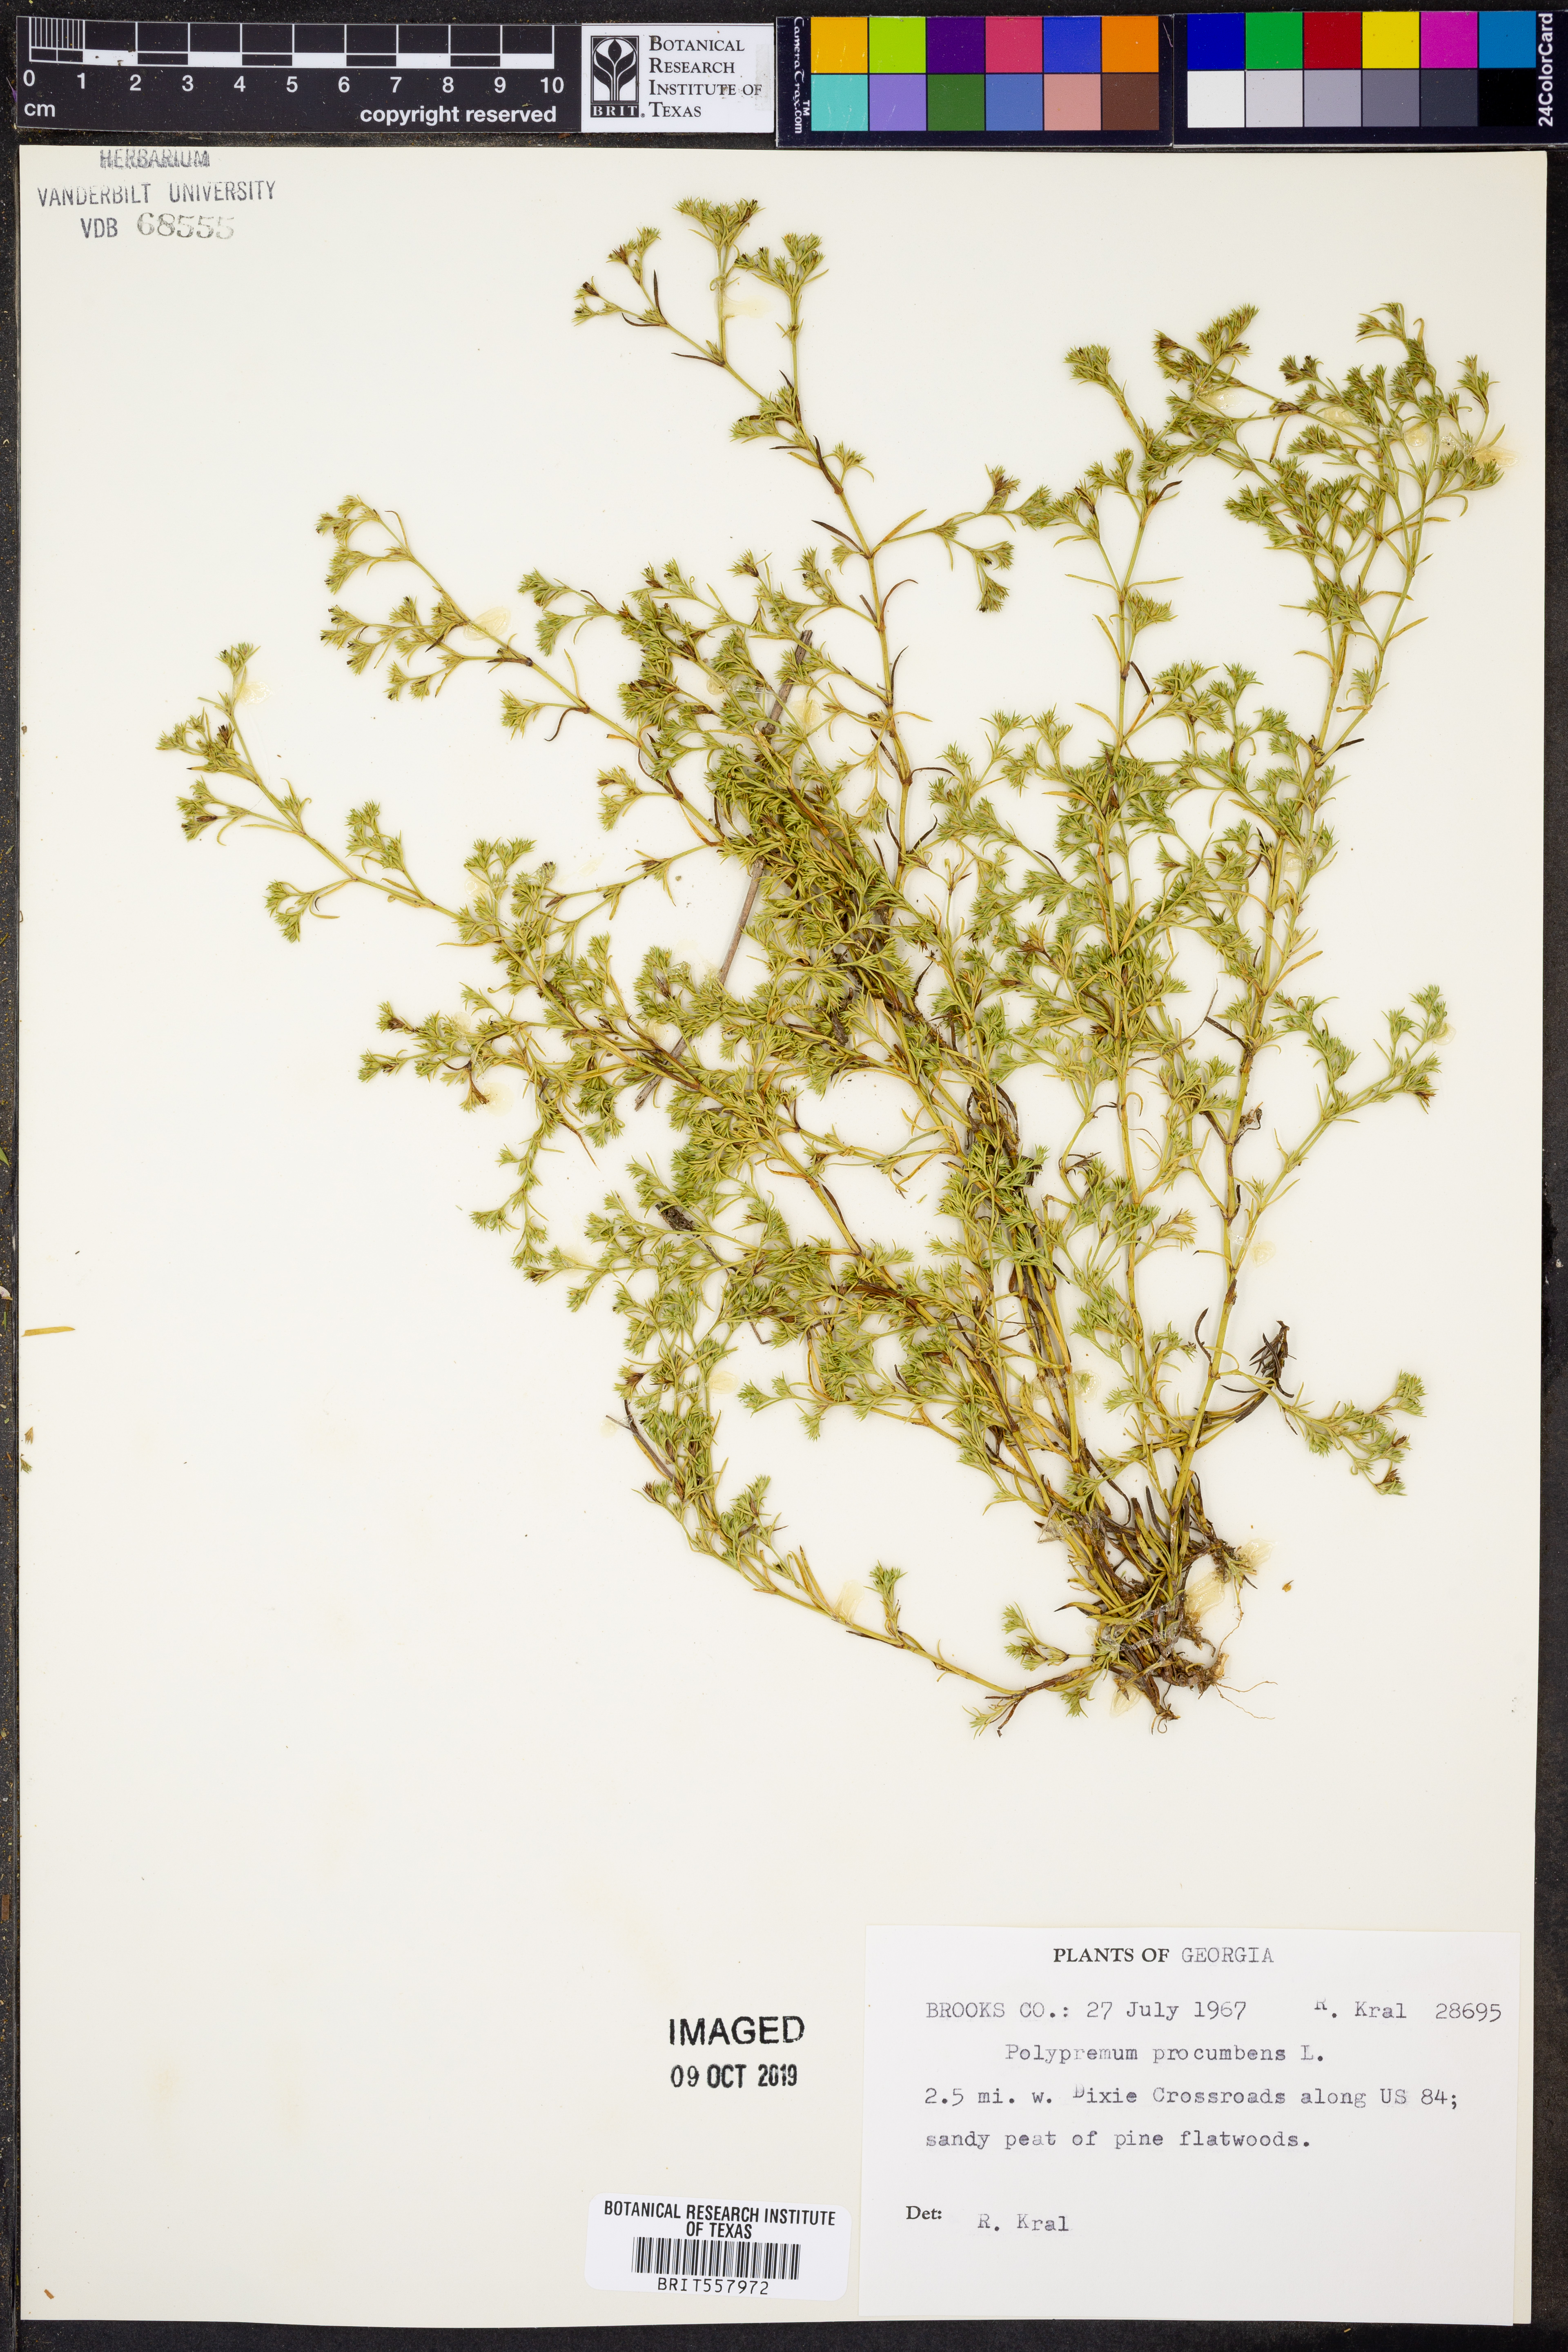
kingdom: Plantae
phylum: Tracheophyta
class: Magnoliopsida
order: Lamiales
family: Tetrachondraceae
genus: Polypremum
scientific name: Polypremum procumbens
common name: Juniper-leaf
